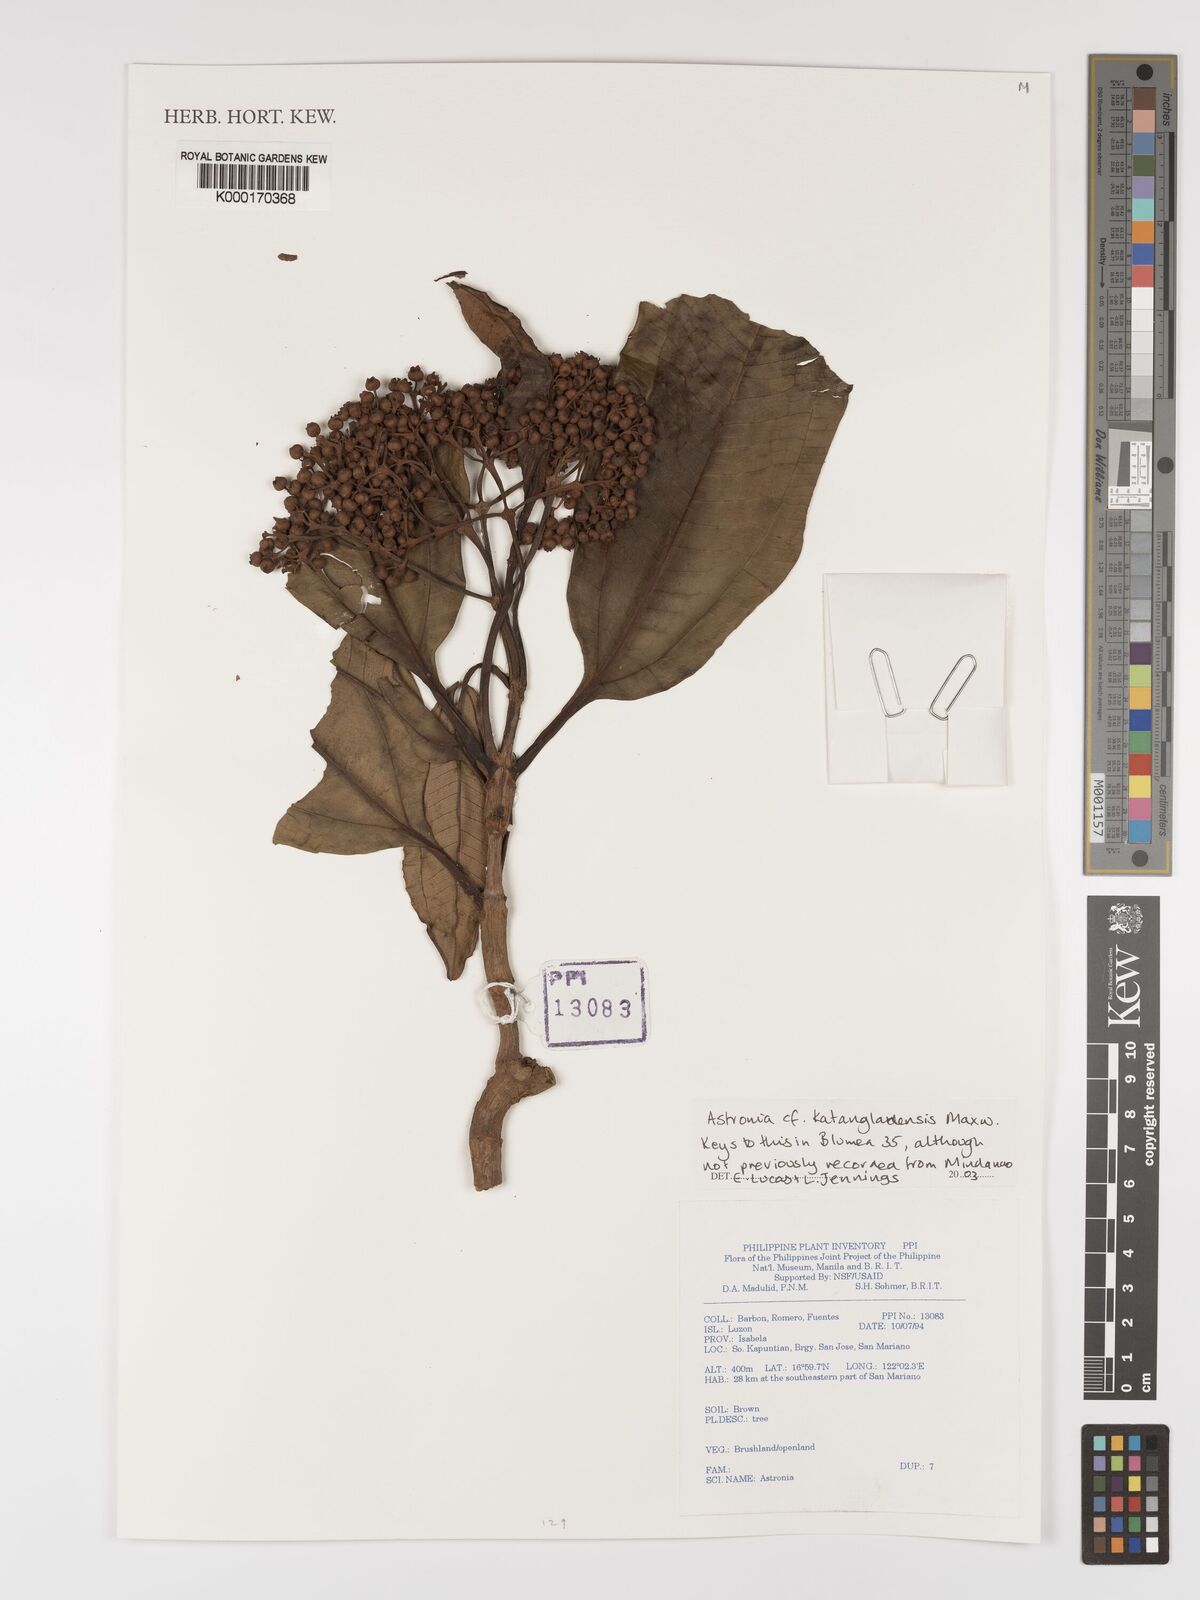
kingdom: Plantae
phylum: Tracheophyta
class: Magnoliopsida
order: Myrtales
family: Melastomataceae
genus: Astronia
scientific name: Astronia
